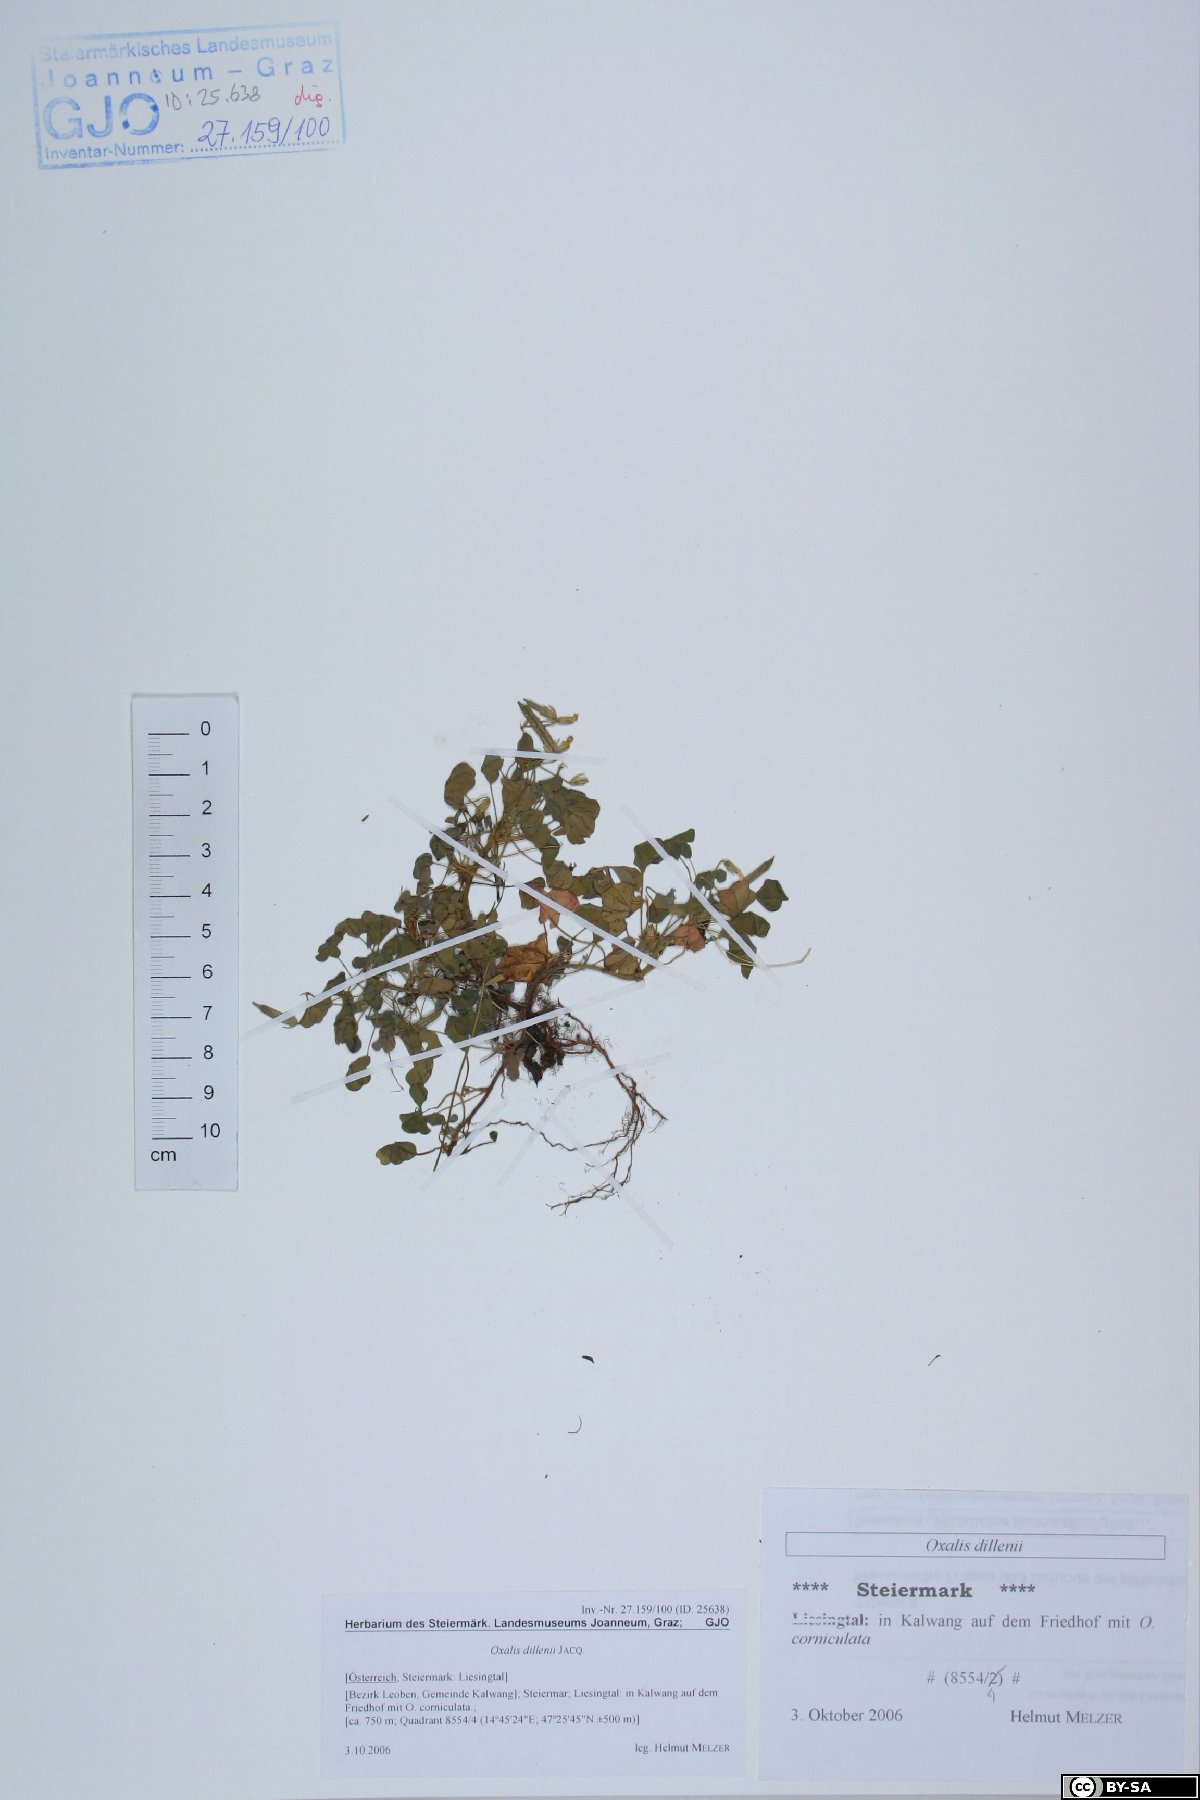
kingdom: Plantae
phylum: Tracheophyta
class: Magnoliopsida
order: Oxalidales
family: Oxalidaceae
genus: Oxalis
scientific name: Oxalis dillenii
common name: Sussex yellow-sorrel
